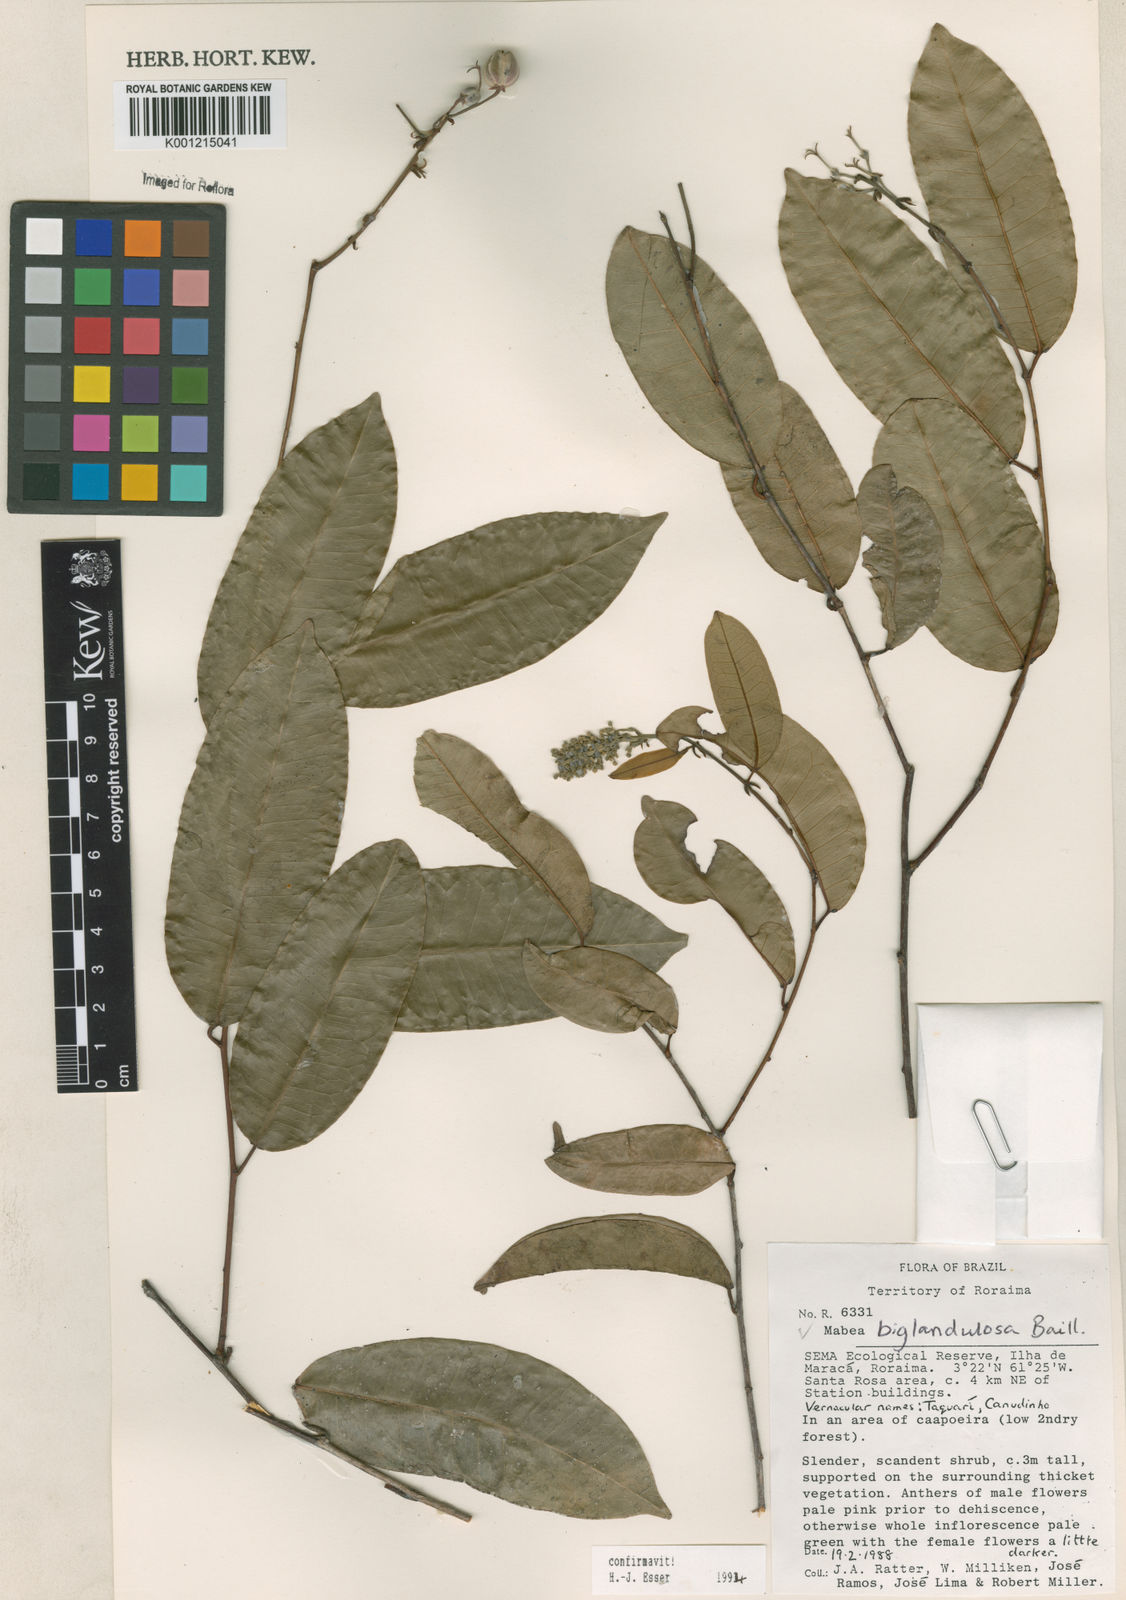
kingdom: Plantae
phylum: Tracheophyta
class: Magnoliopsida
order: Malpighiales
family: Euphorbiaceae
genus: Mabea
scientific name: Mabea
